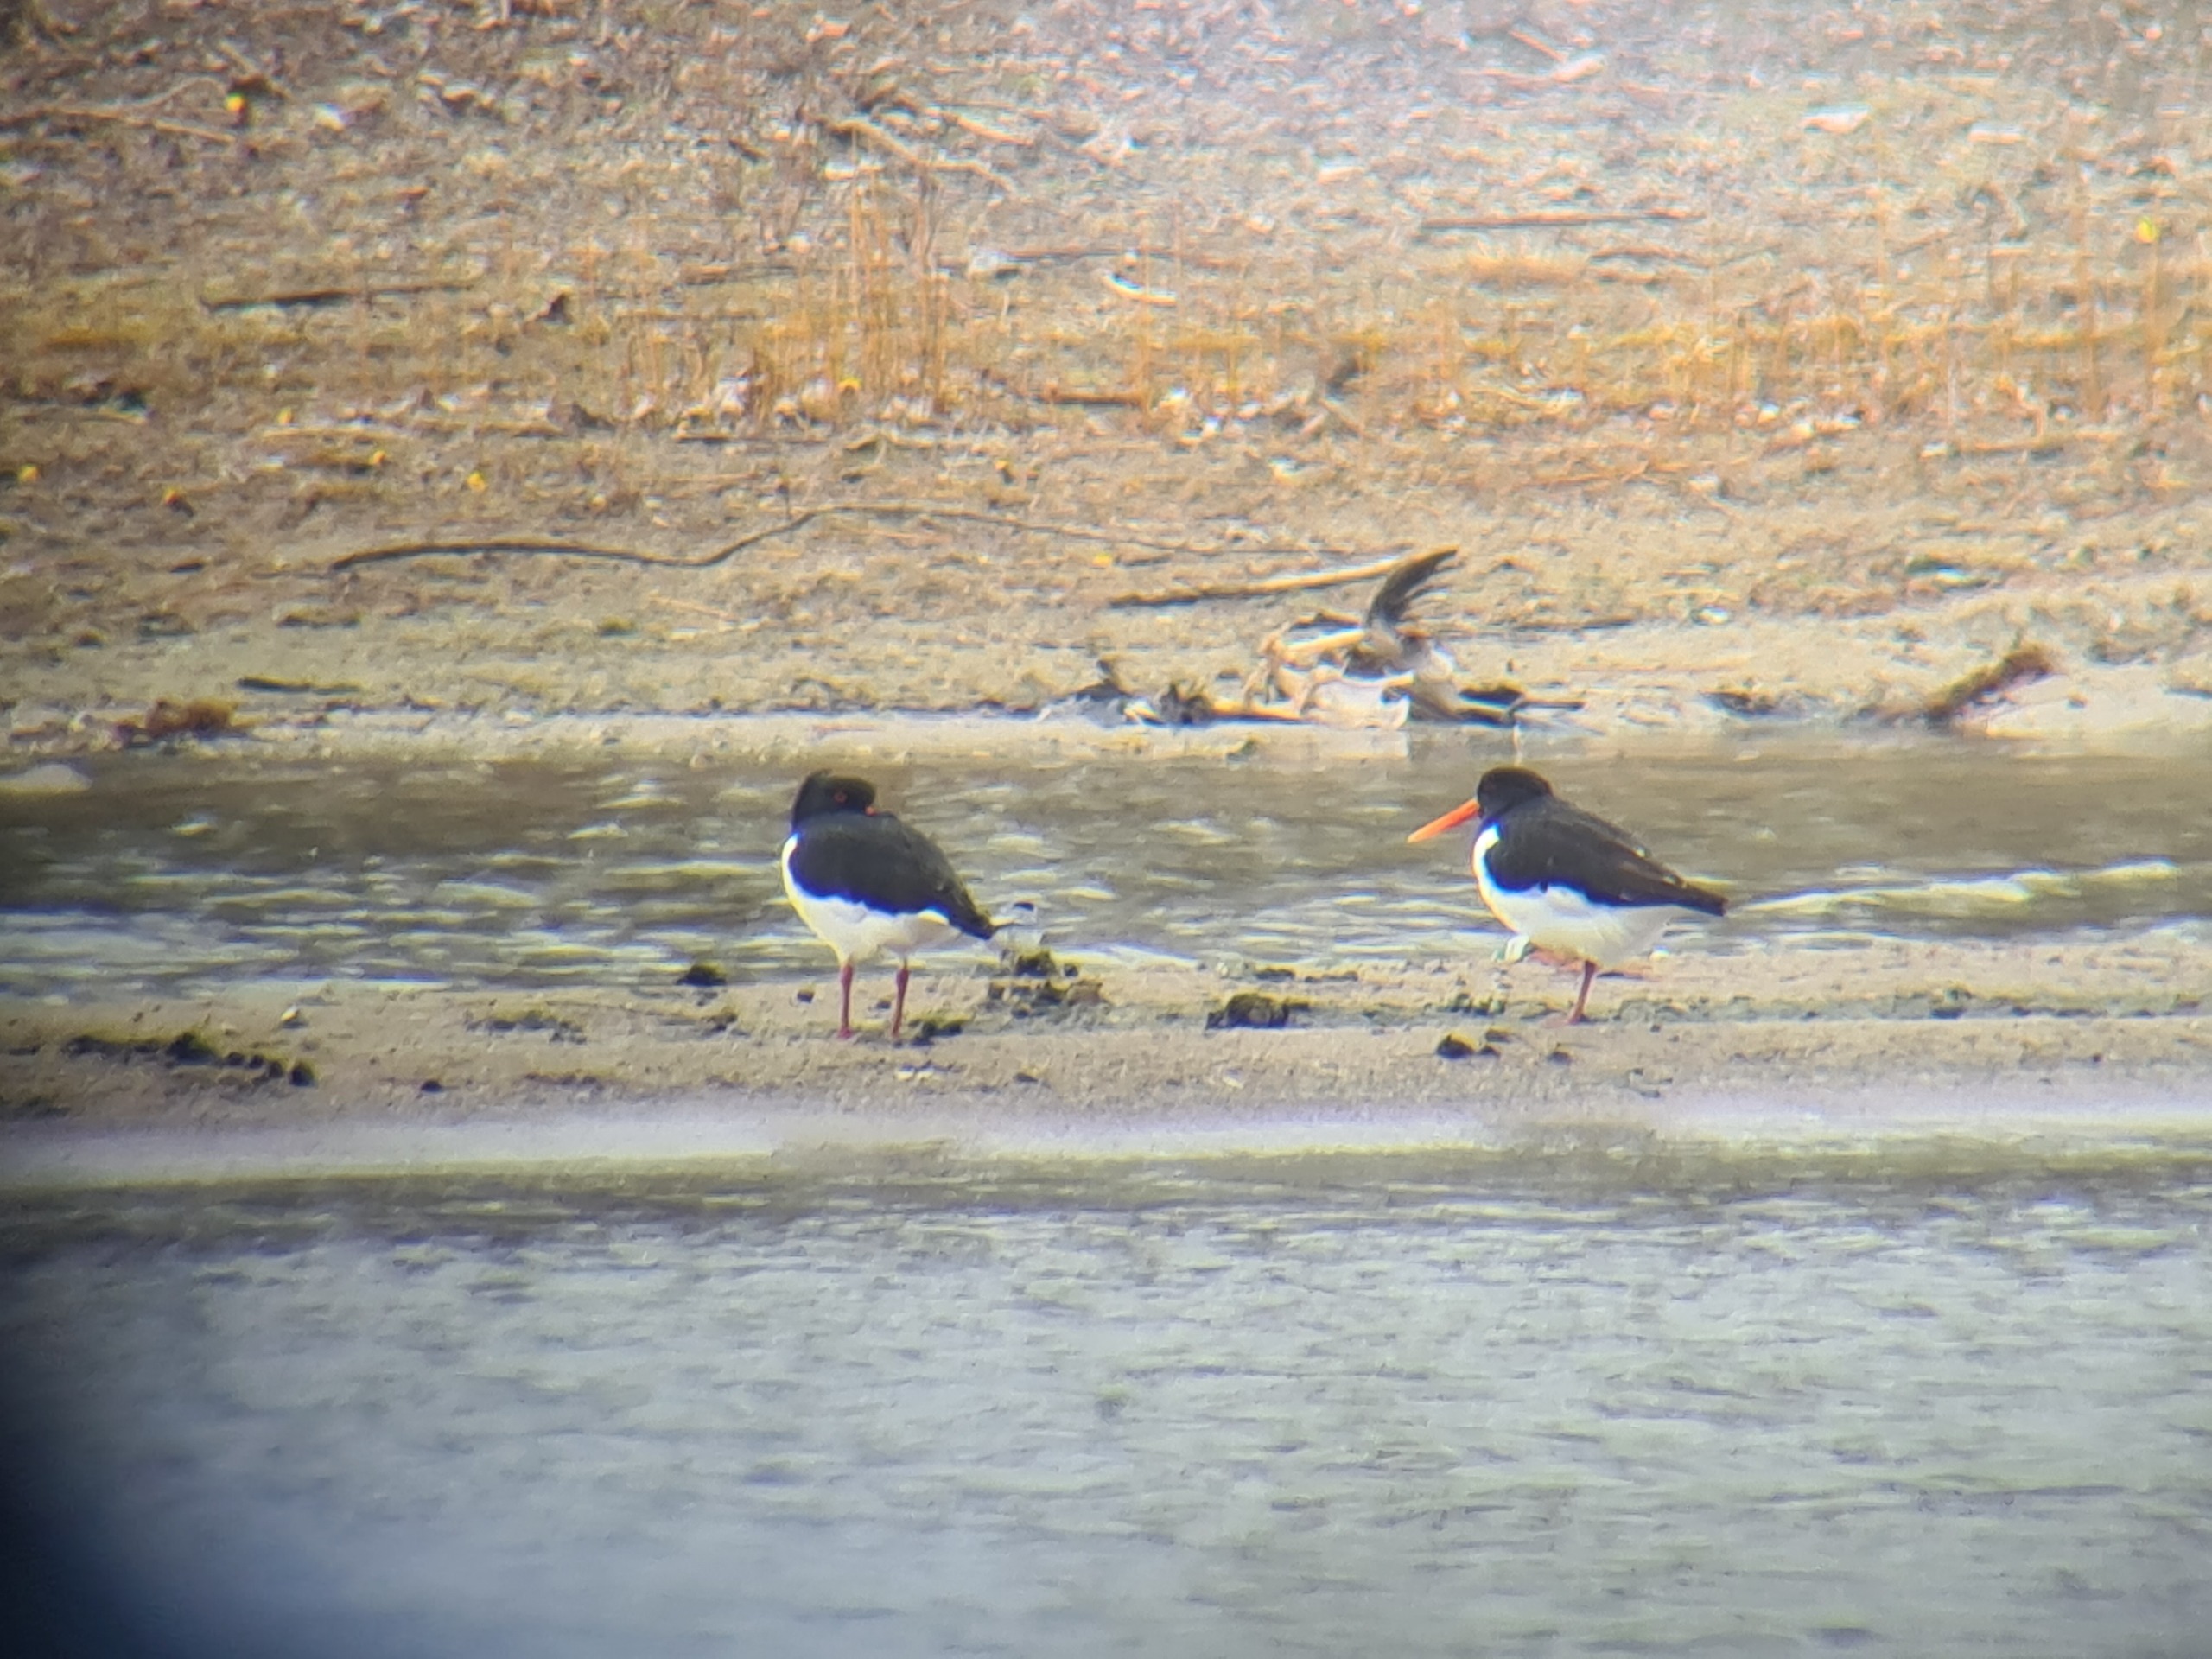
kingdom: Animalia
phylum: Chordata
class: Aves
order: Charadriiformes
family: Haematopodidae
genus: Haematopus
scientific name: Haematopus ostralegus
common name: Strandskade
